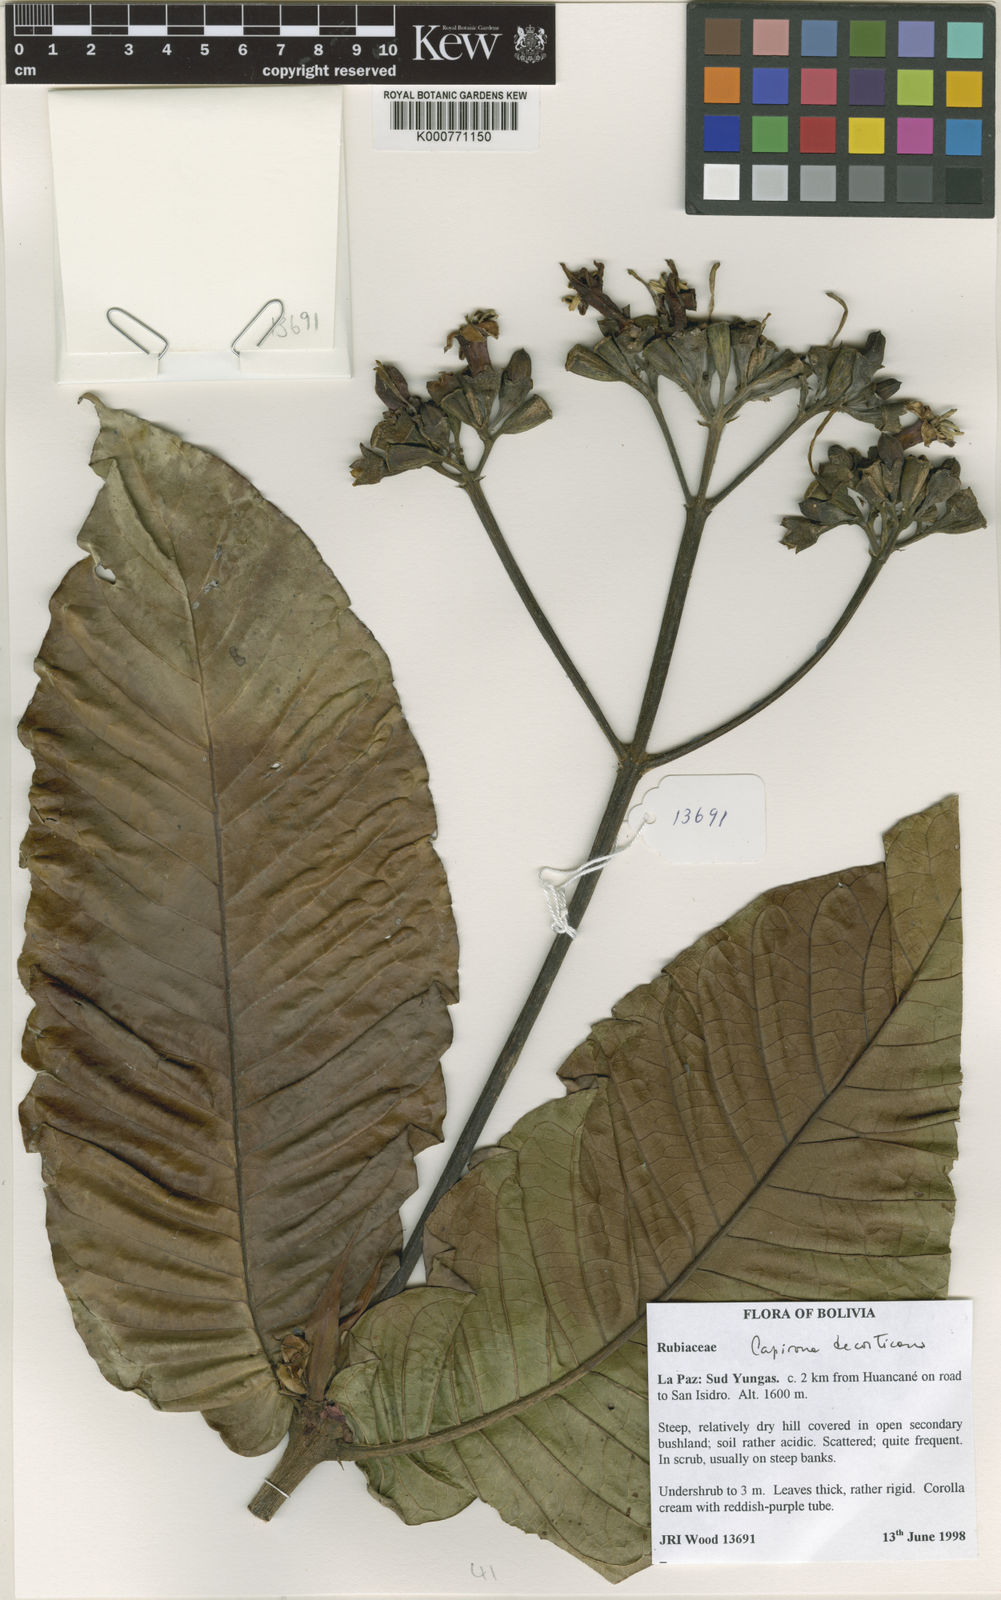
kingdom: Plantae
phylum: Tracheophyta
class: Magnoliopsida
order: Gentianales
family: Rubiaceae
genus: Capirona
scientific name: Capirona macrophylla
